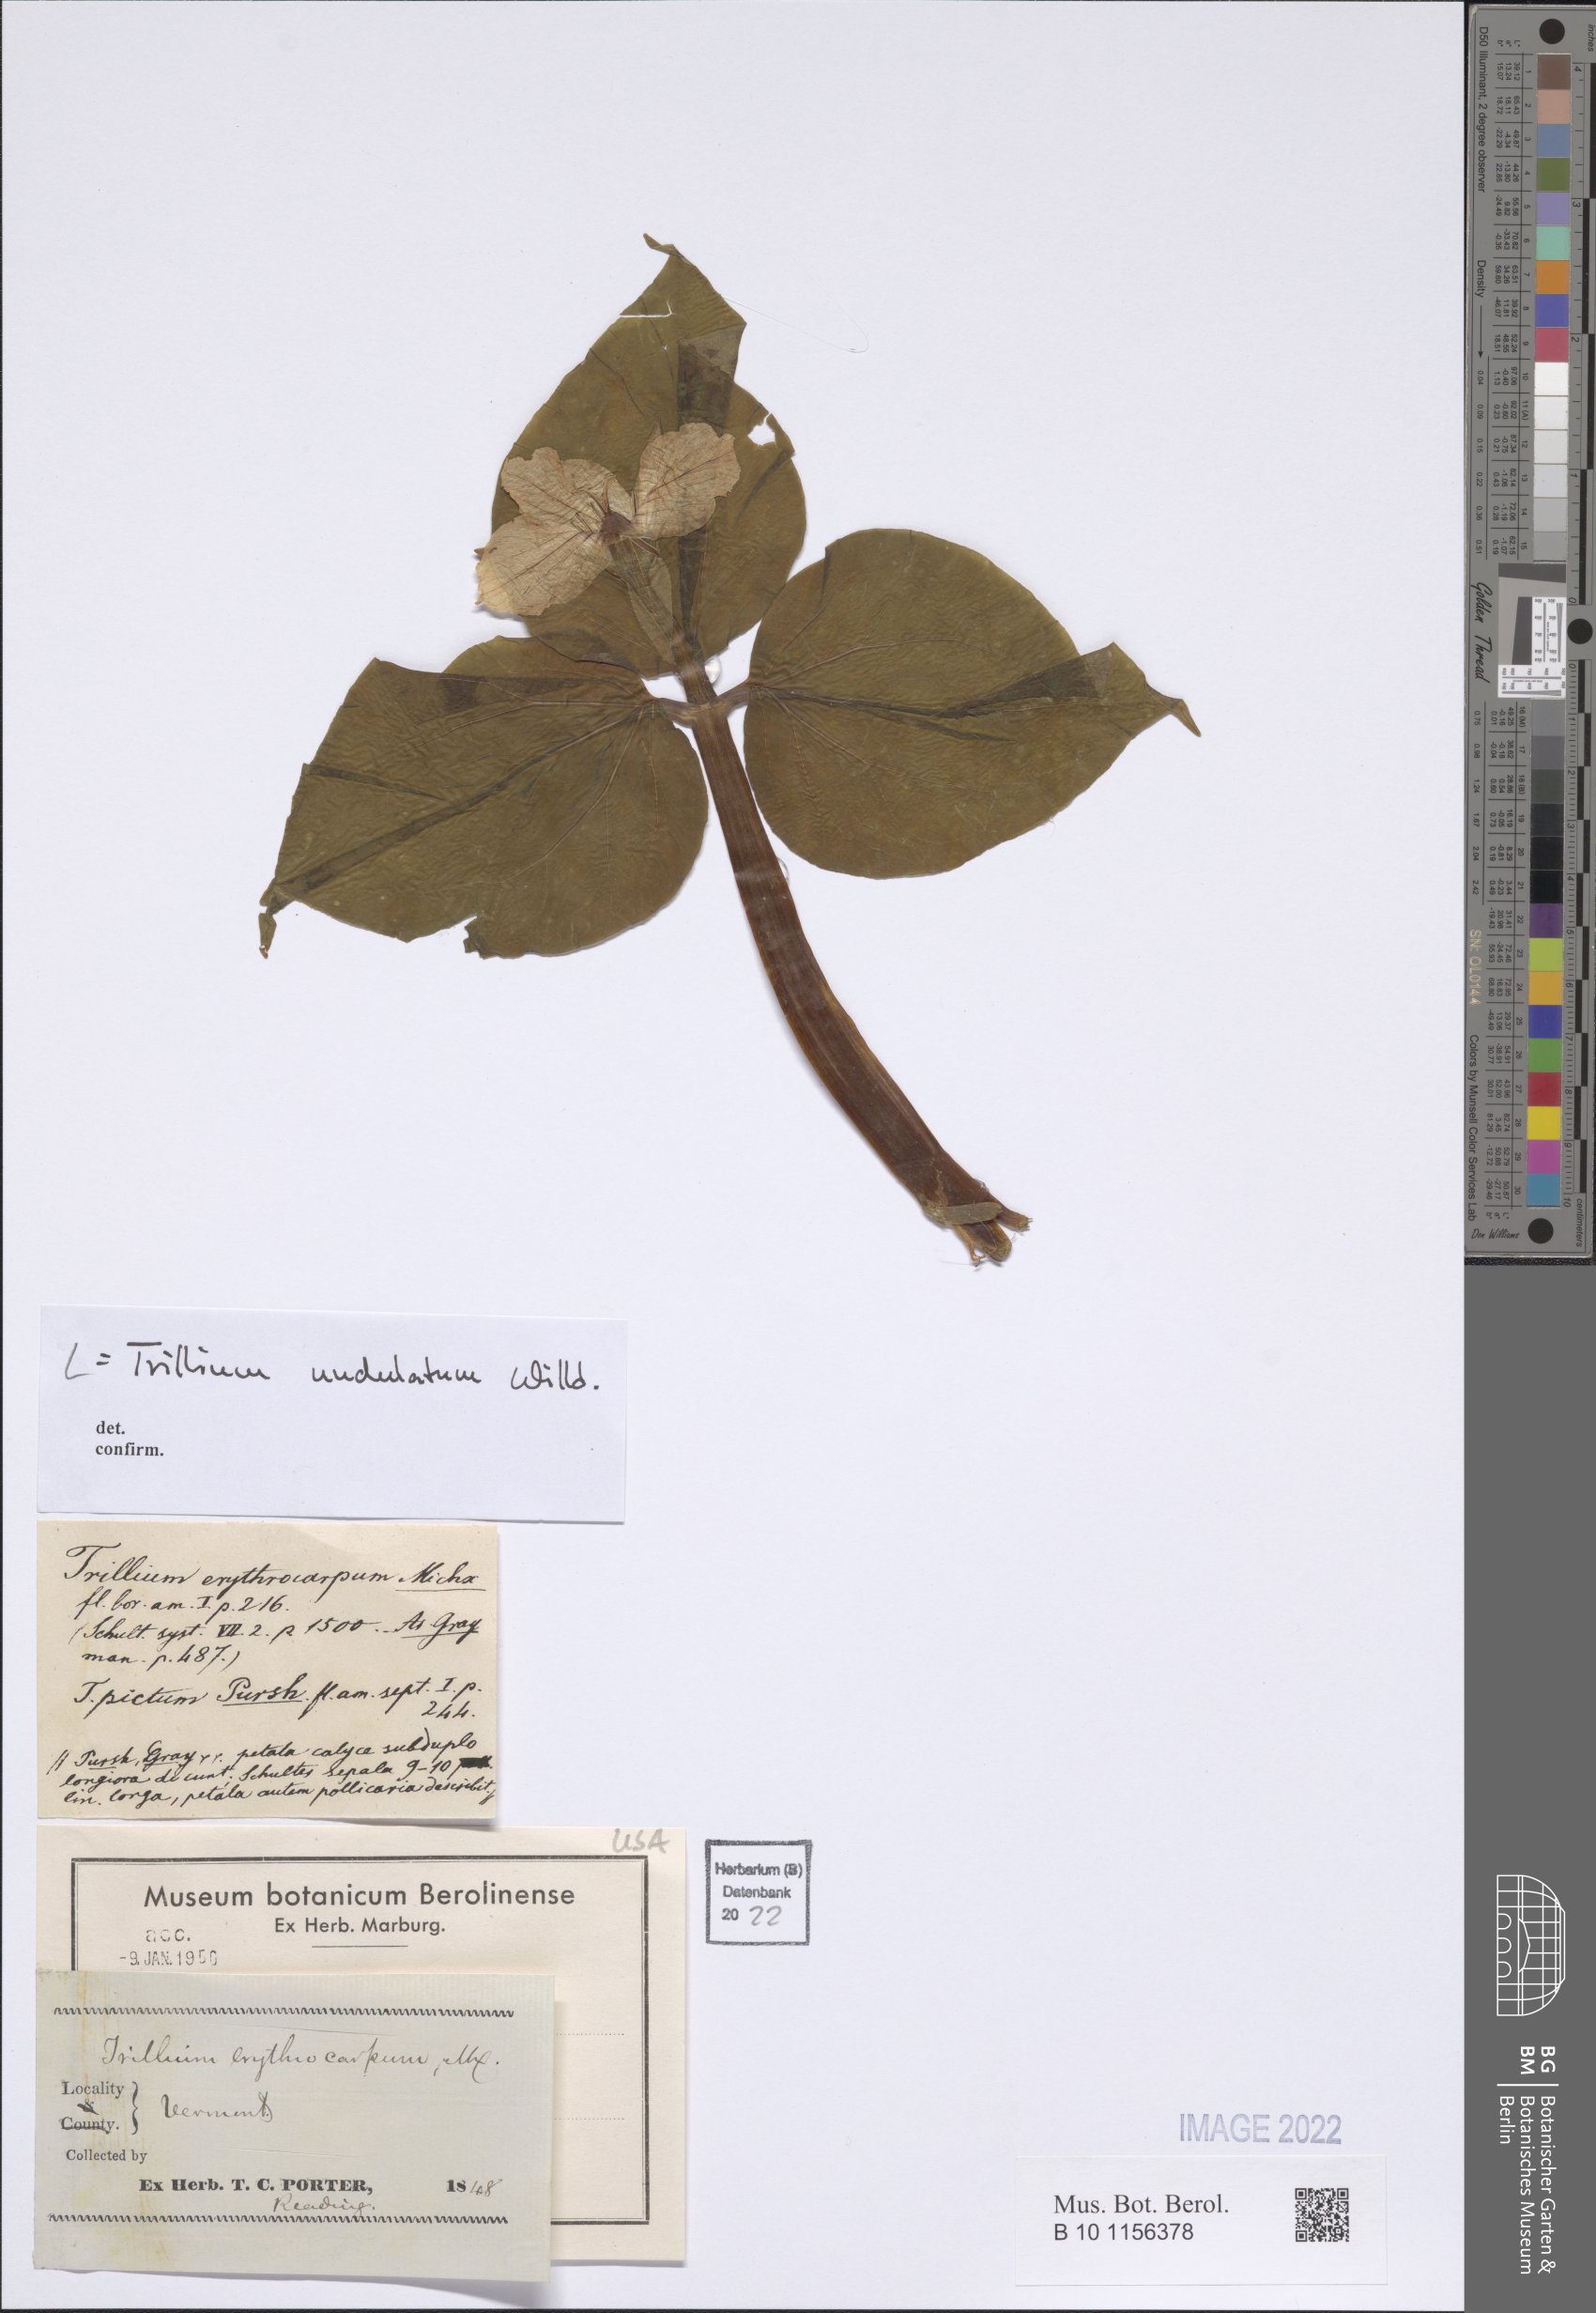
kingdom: Plantae
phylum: Tracheophyta
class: Liliopsida
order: Liliales
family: Melanthiaceae
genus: Trillium
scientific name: Trillium undulatum
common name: Paint trillium
